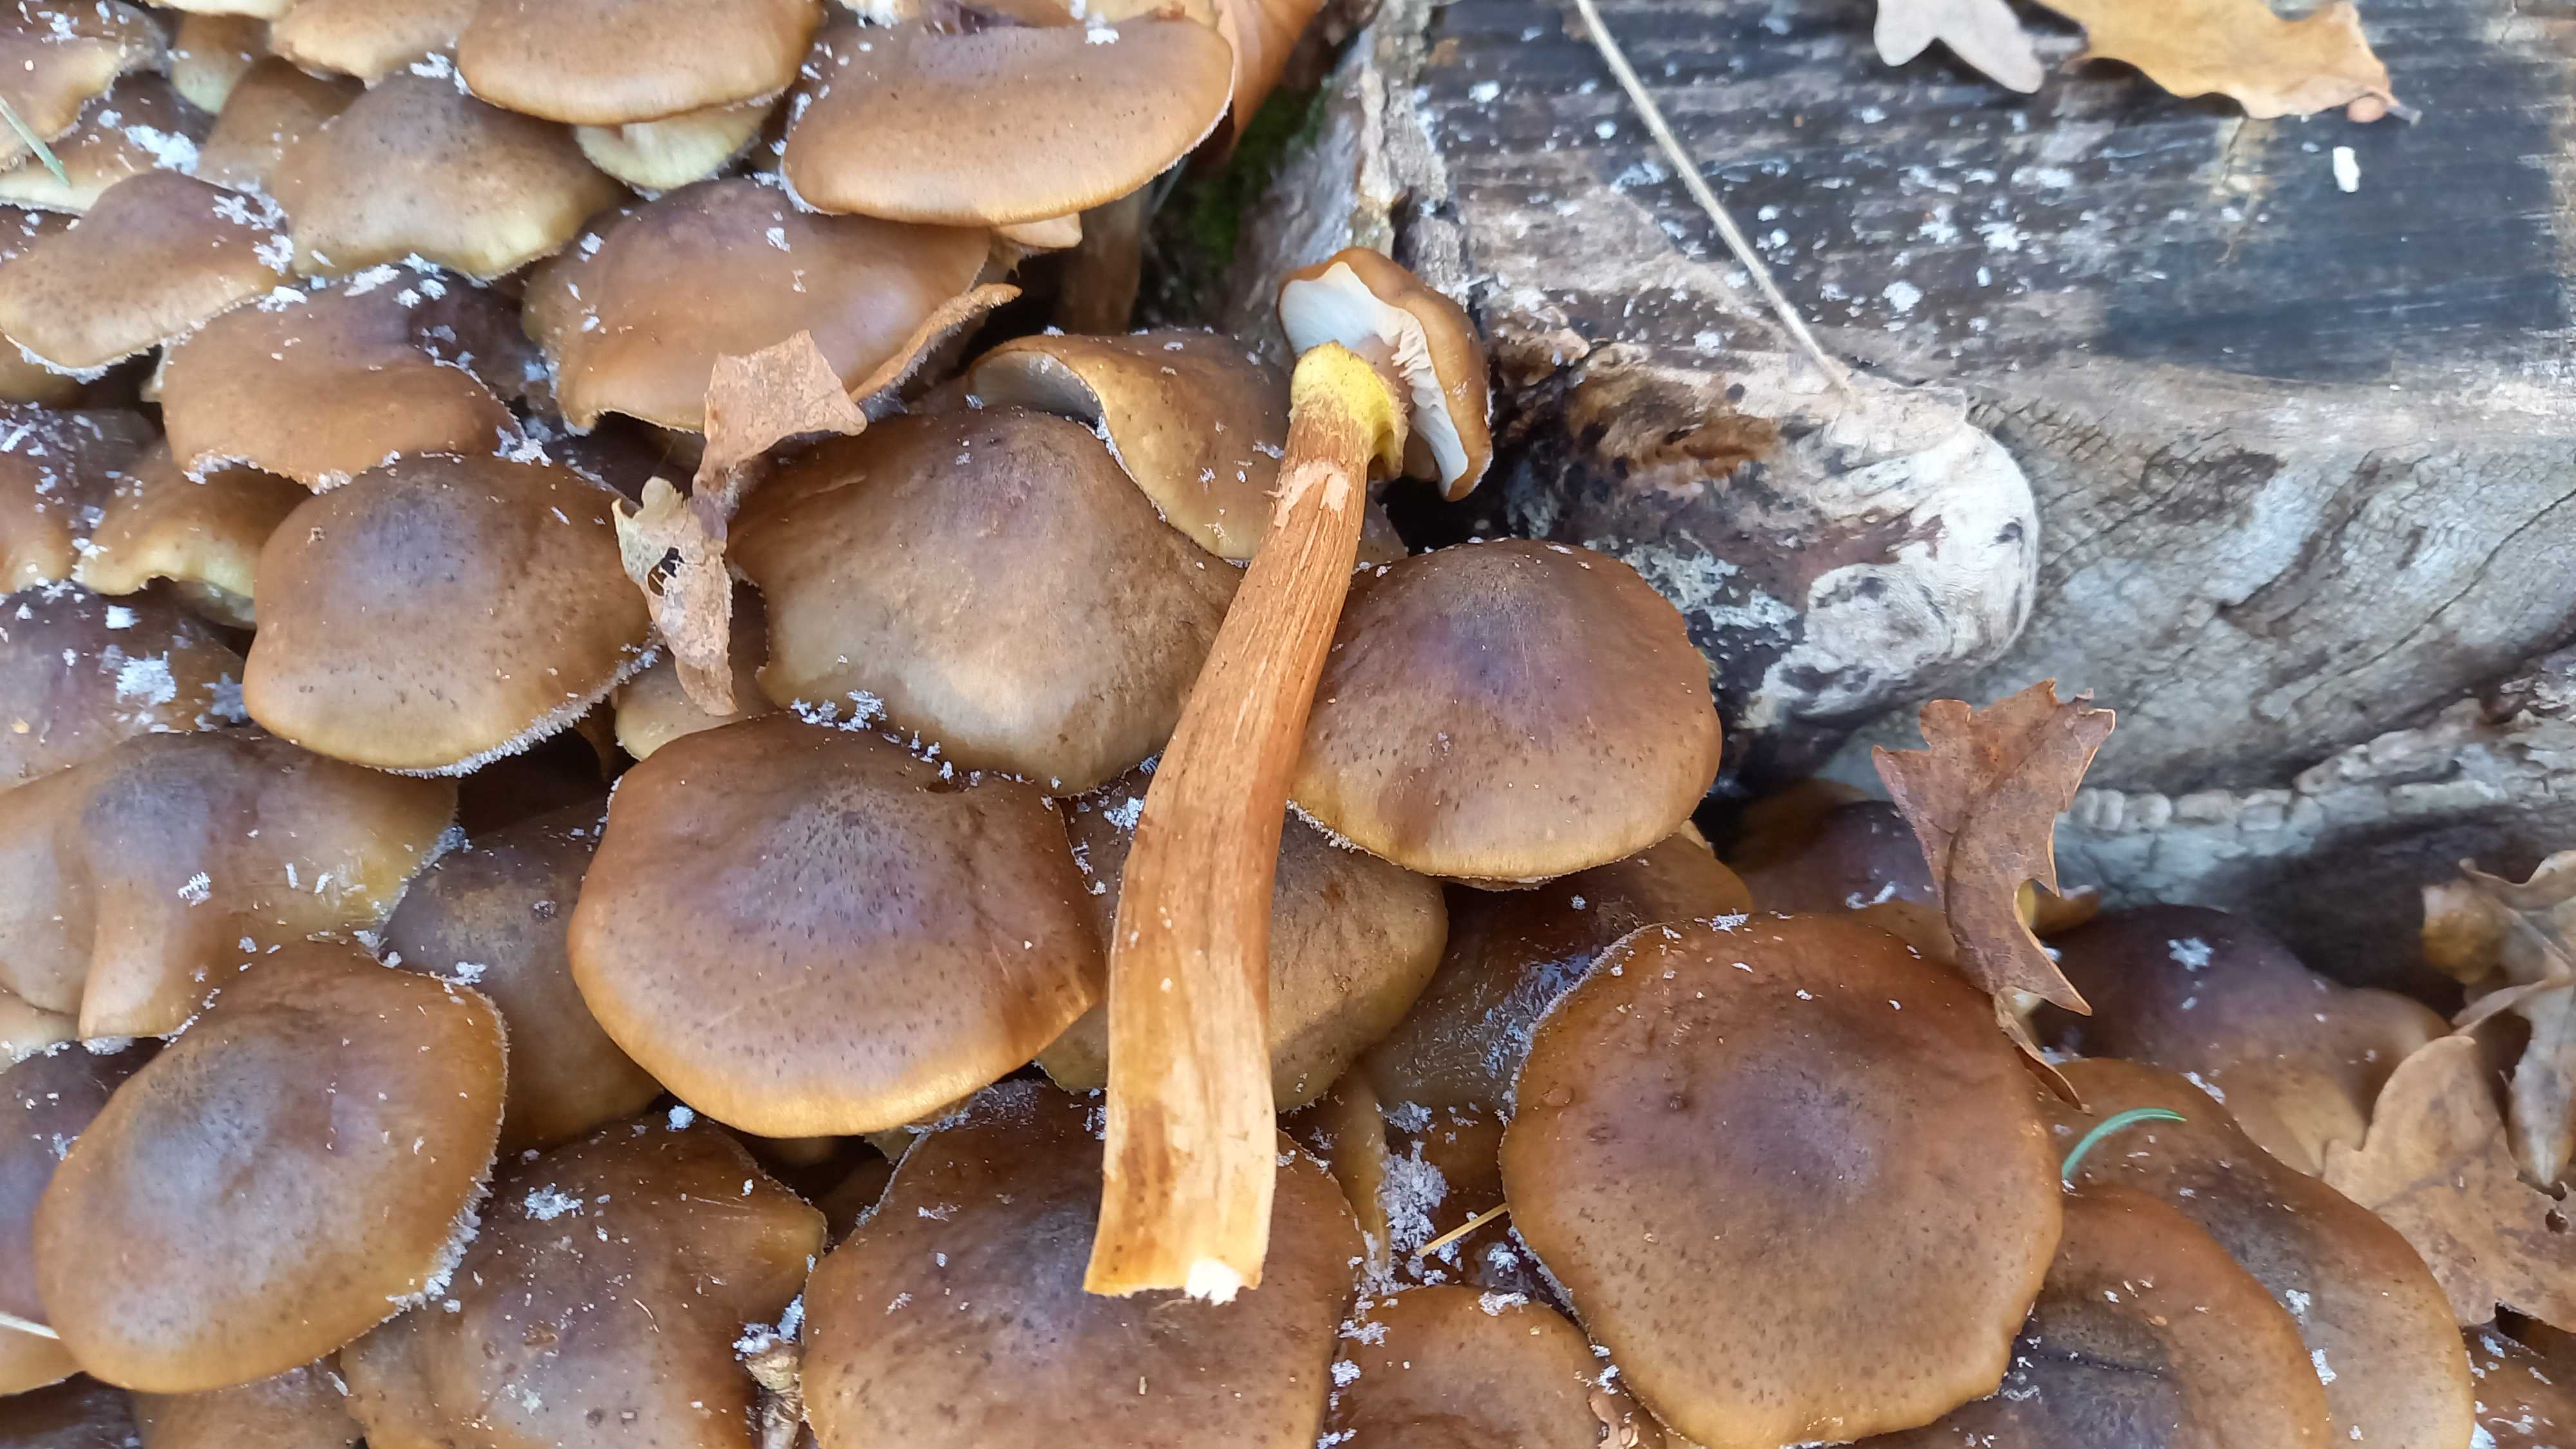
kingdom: Fungi
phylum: Basidiomycota
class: Agaricomycetes
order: Agaricales
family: Physalacriaceae
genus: Armillaria
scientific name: Armillaria mellea
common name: ægte honningsvamp
